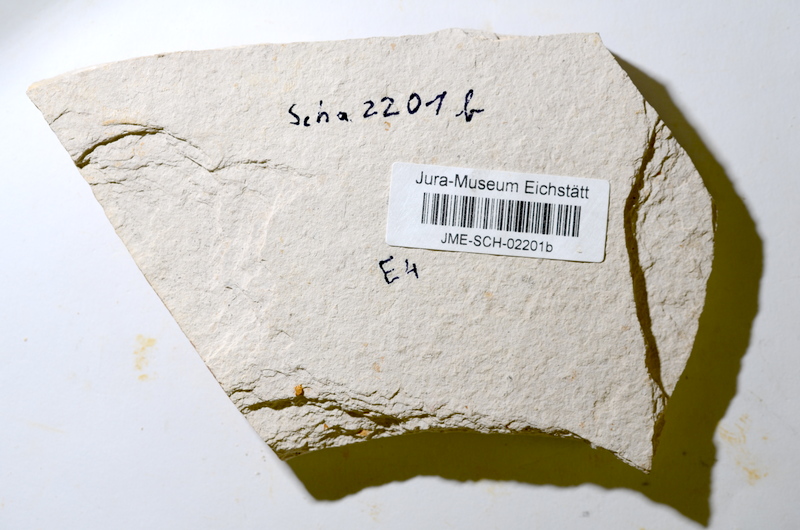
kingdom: Animalia
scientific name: Animalia
